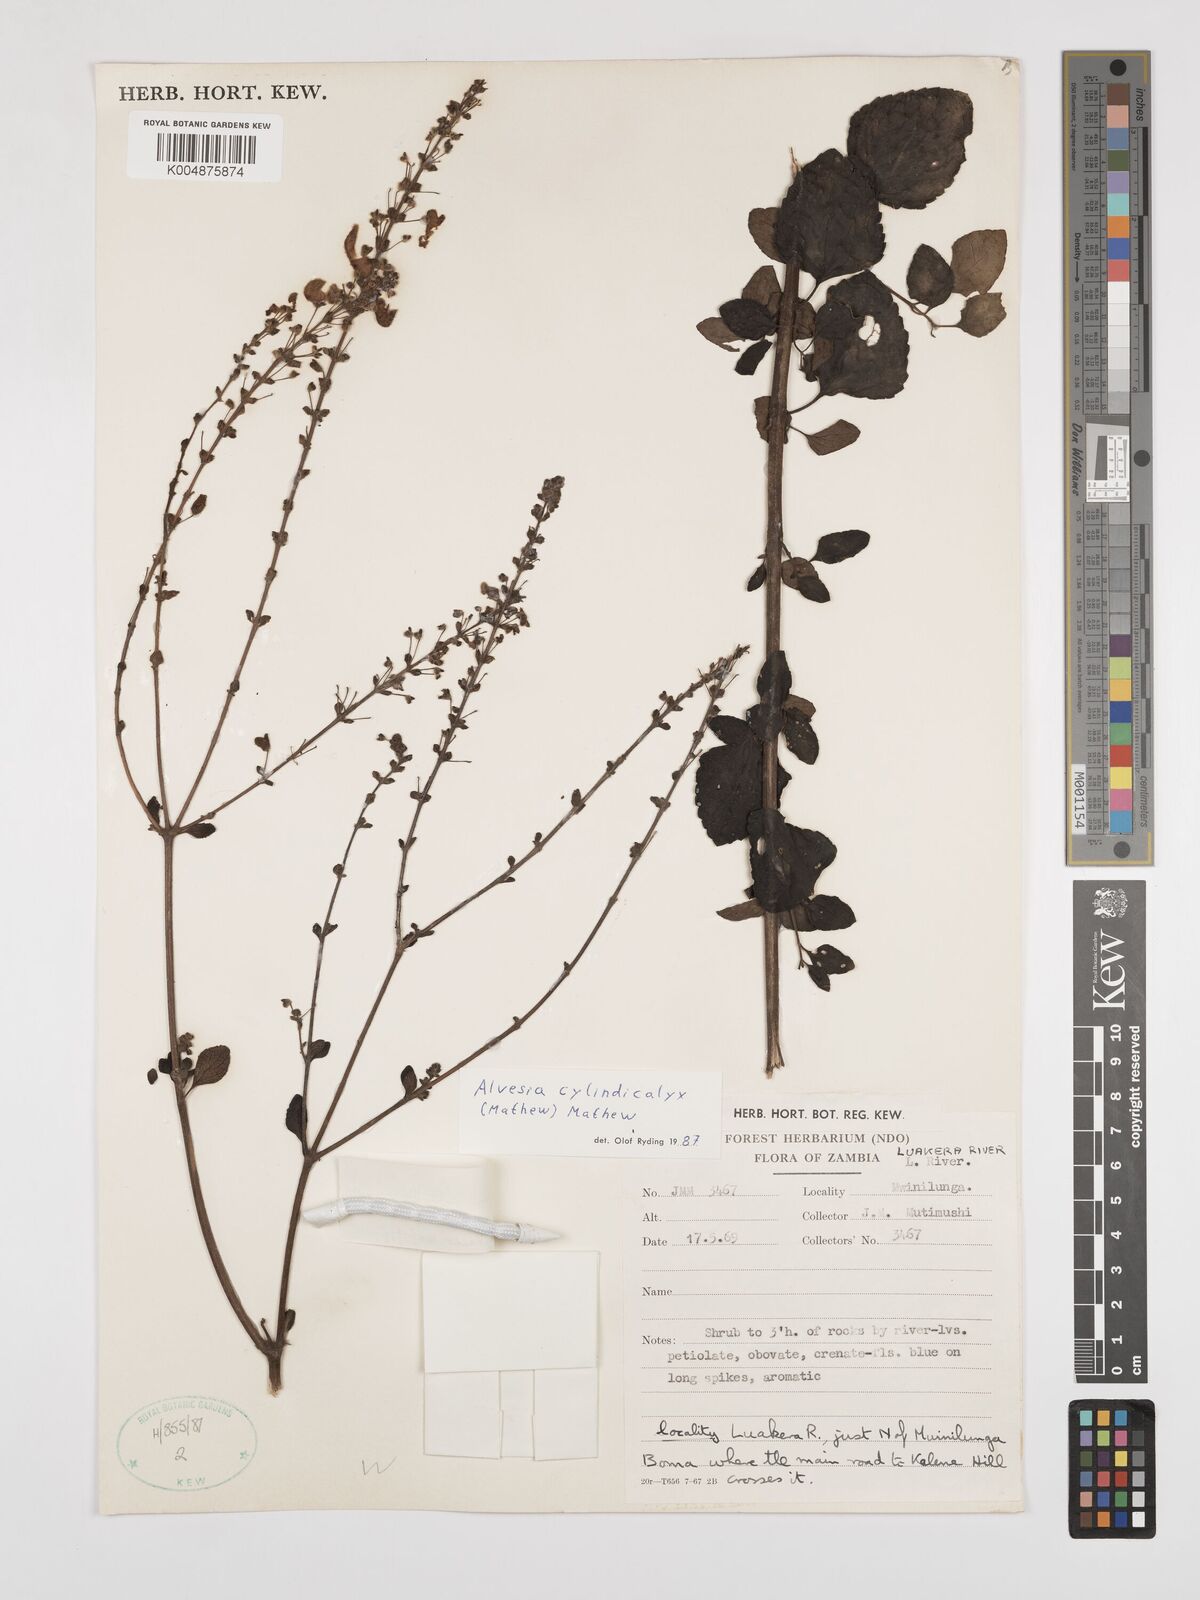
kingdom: Plantae
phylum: Tracheophyta
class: Magnoliopsida
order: Lamiales
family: Lamiaceae
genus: Alvesia
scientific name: Alvesia cylindricalyx
